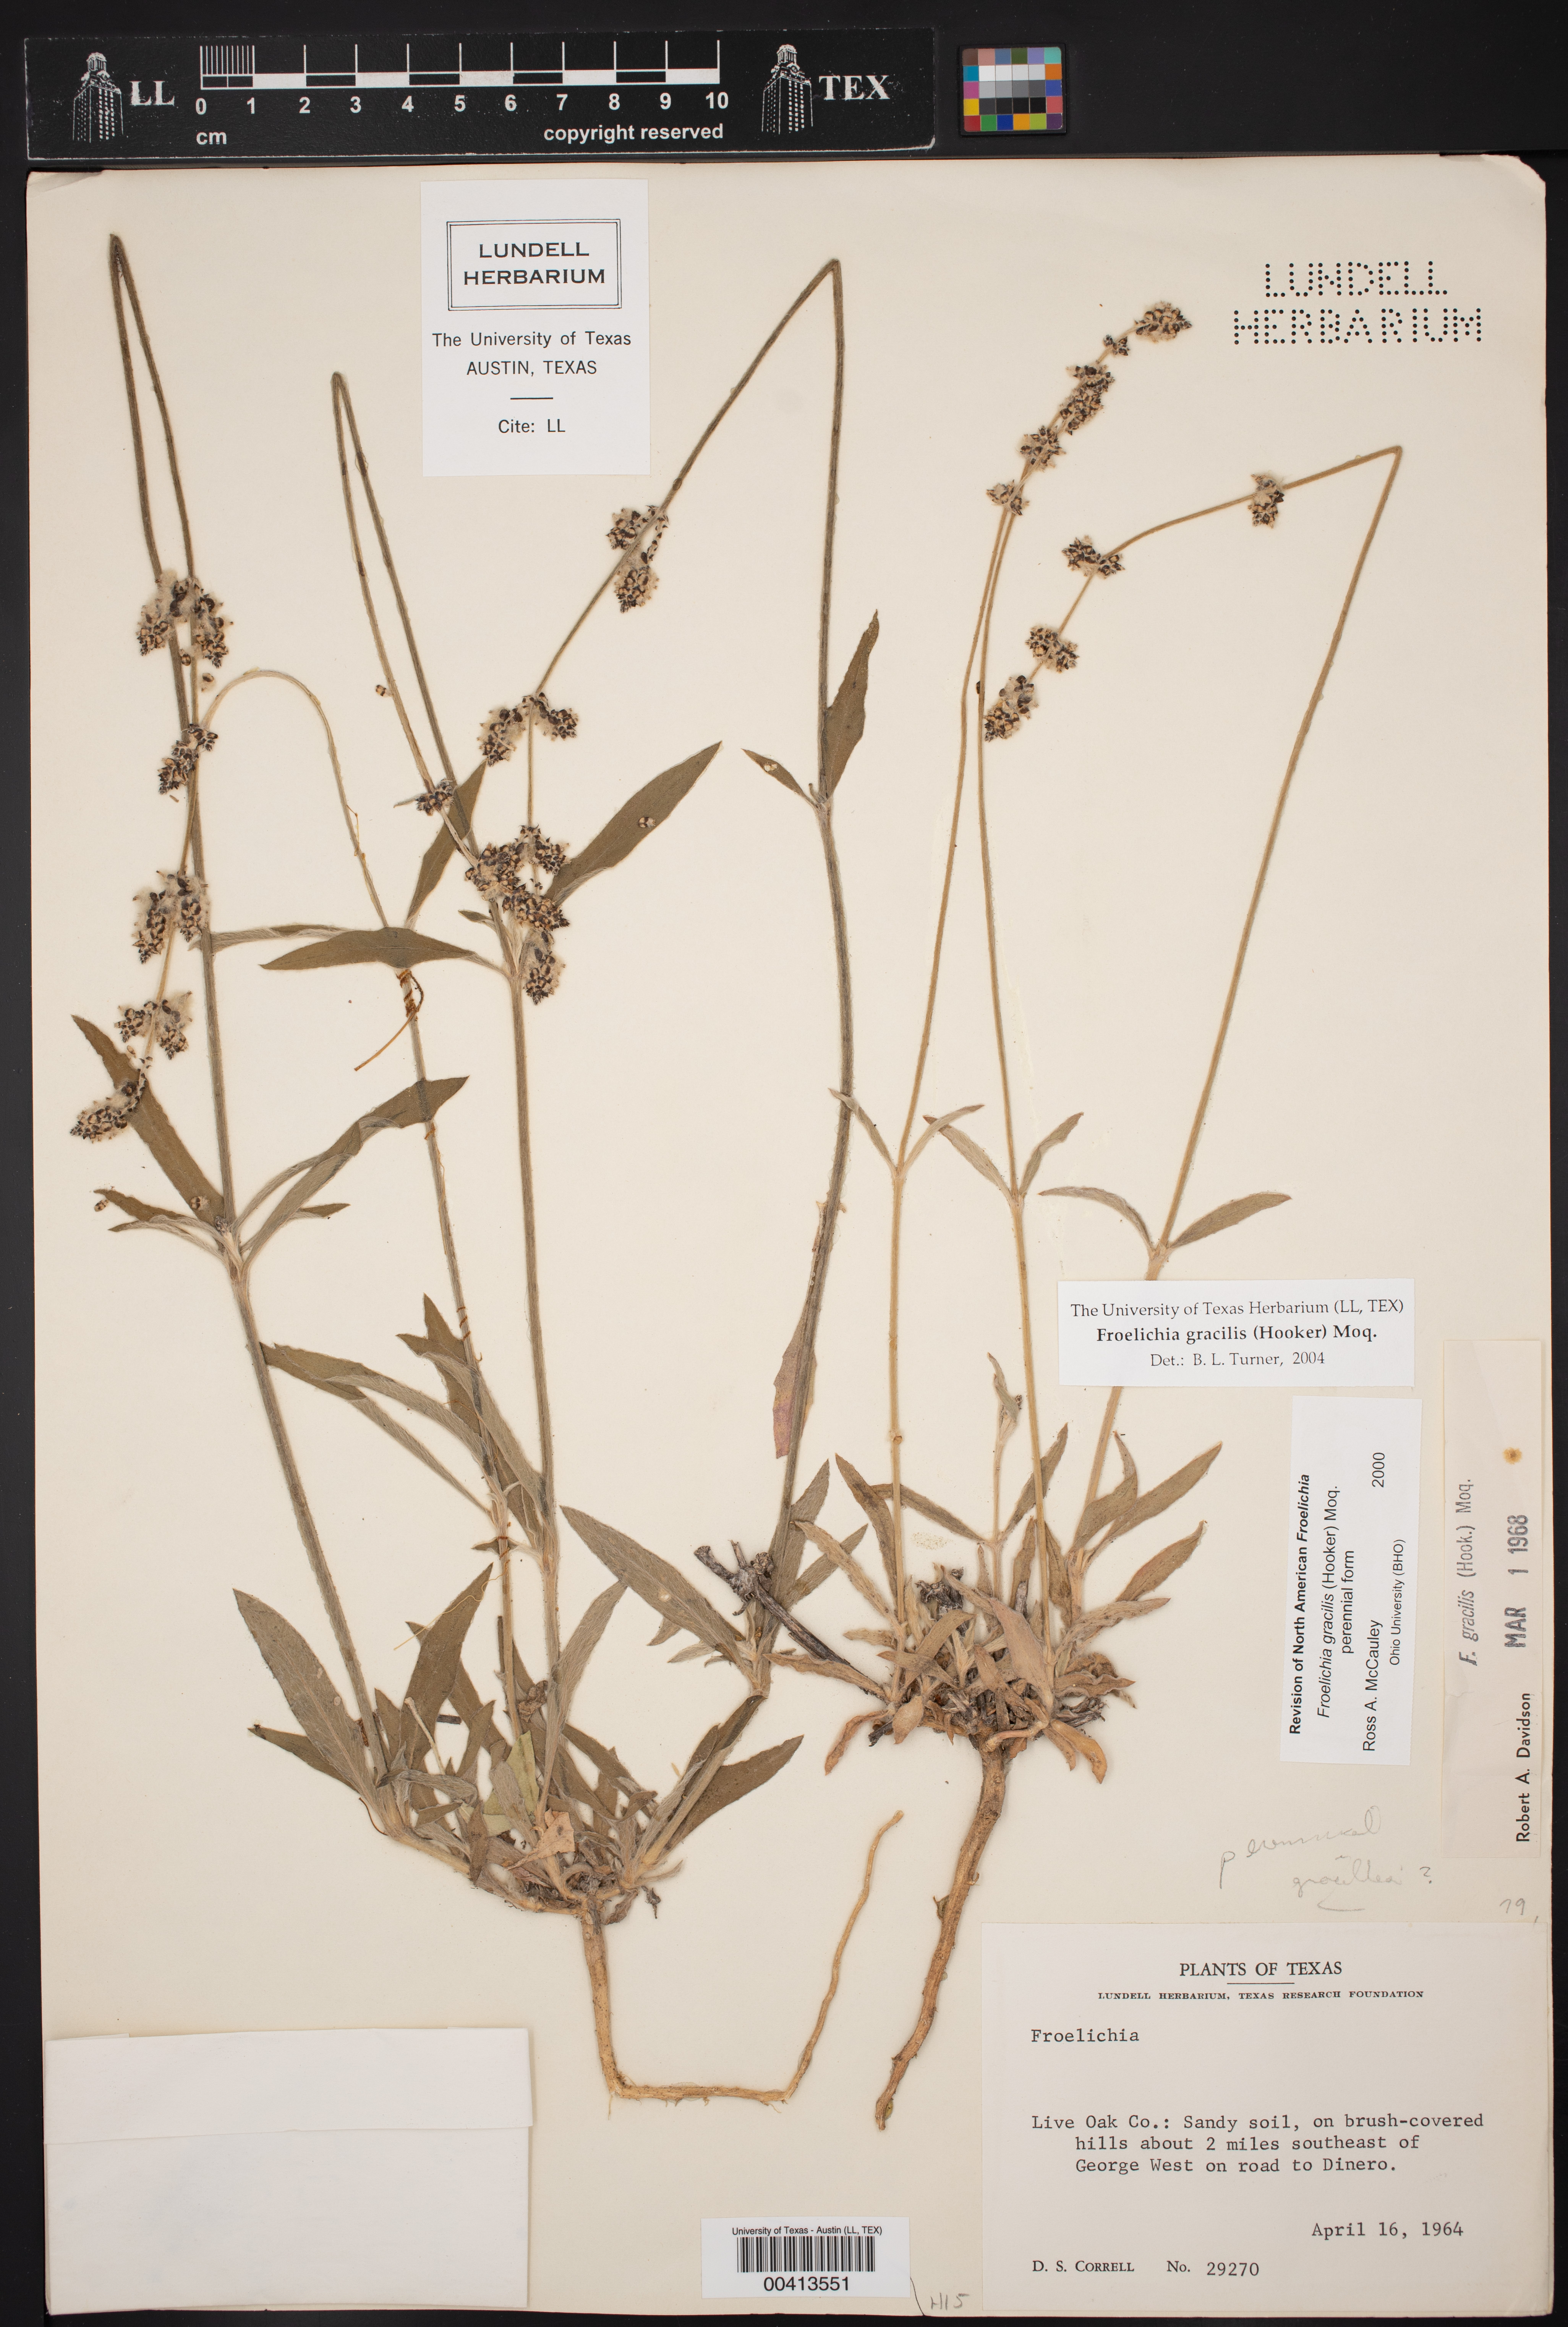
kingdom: Plantae
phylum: Tracheophyta
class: Magnoliopsida
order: Caryophyllales
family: Amaranthaceae
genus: Froelichia
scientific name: Froelichia gracilis
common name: Slender cottonweed
